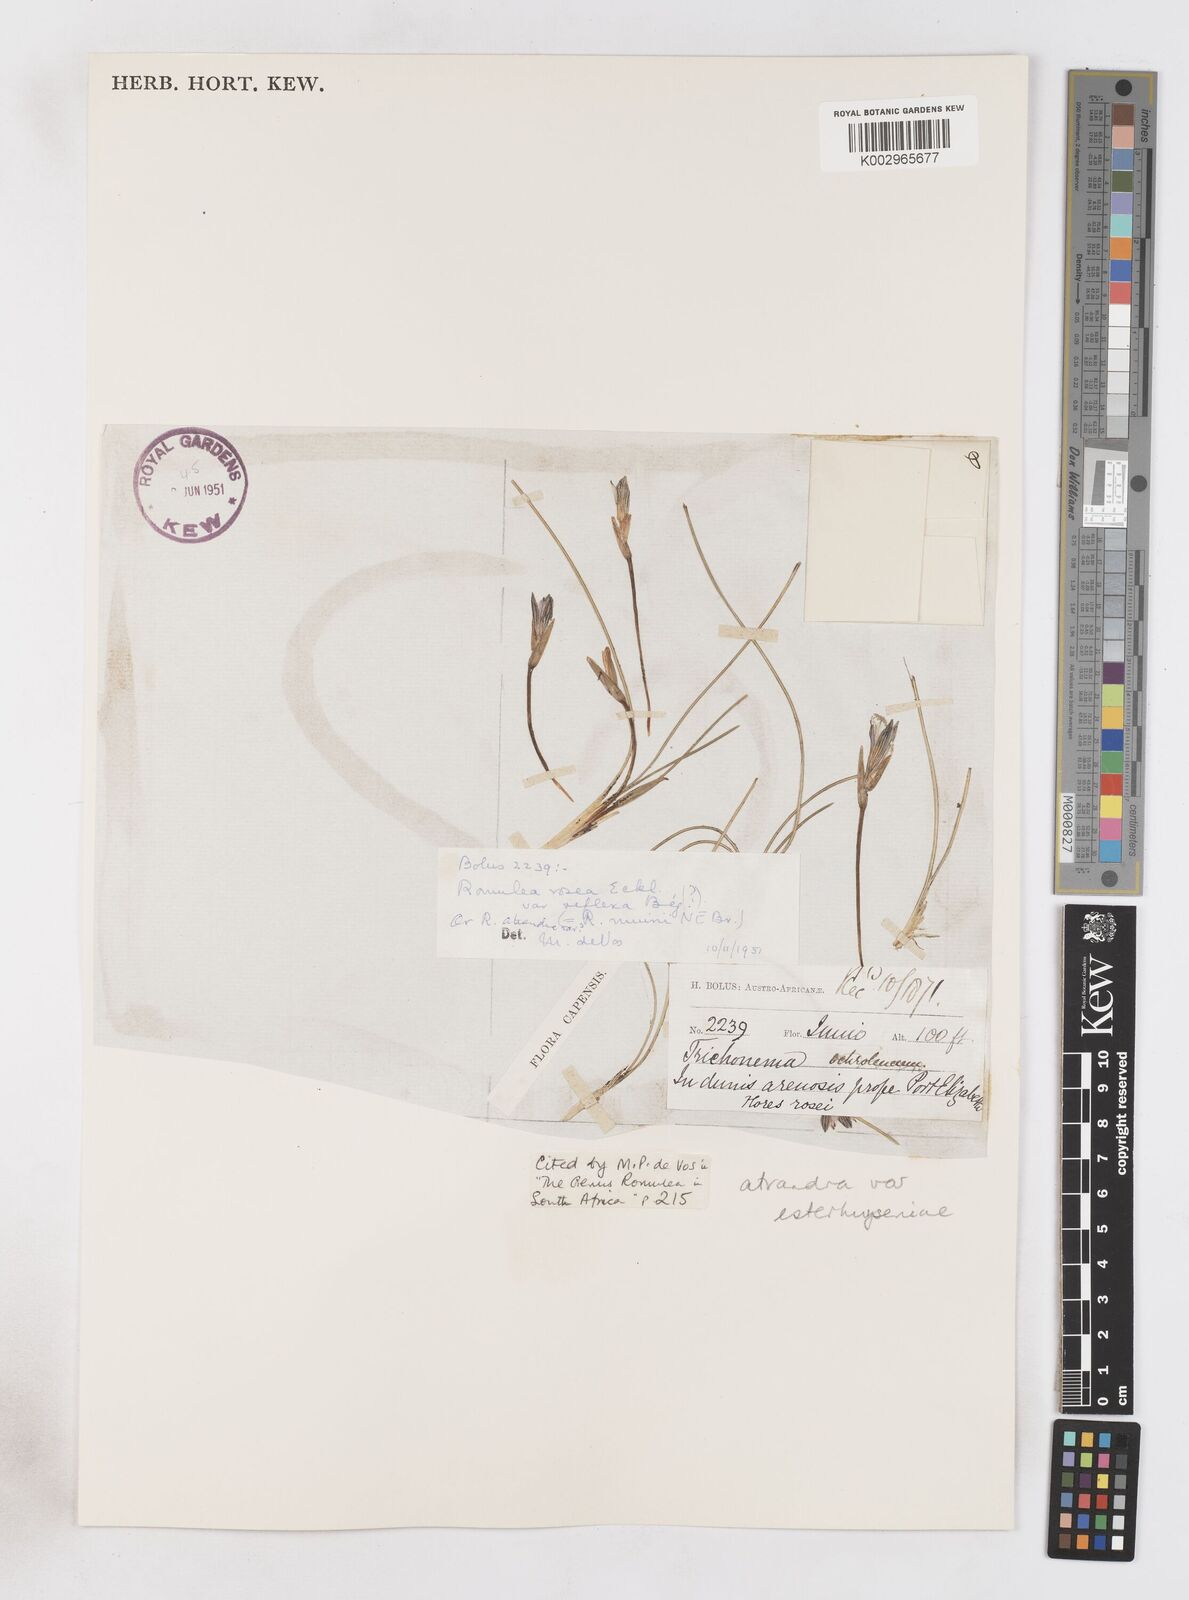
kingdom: Plantae
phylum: Tracheophyta
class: Liliopsida
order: Asparagales
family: Iridaceae
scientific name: Iridaceae
